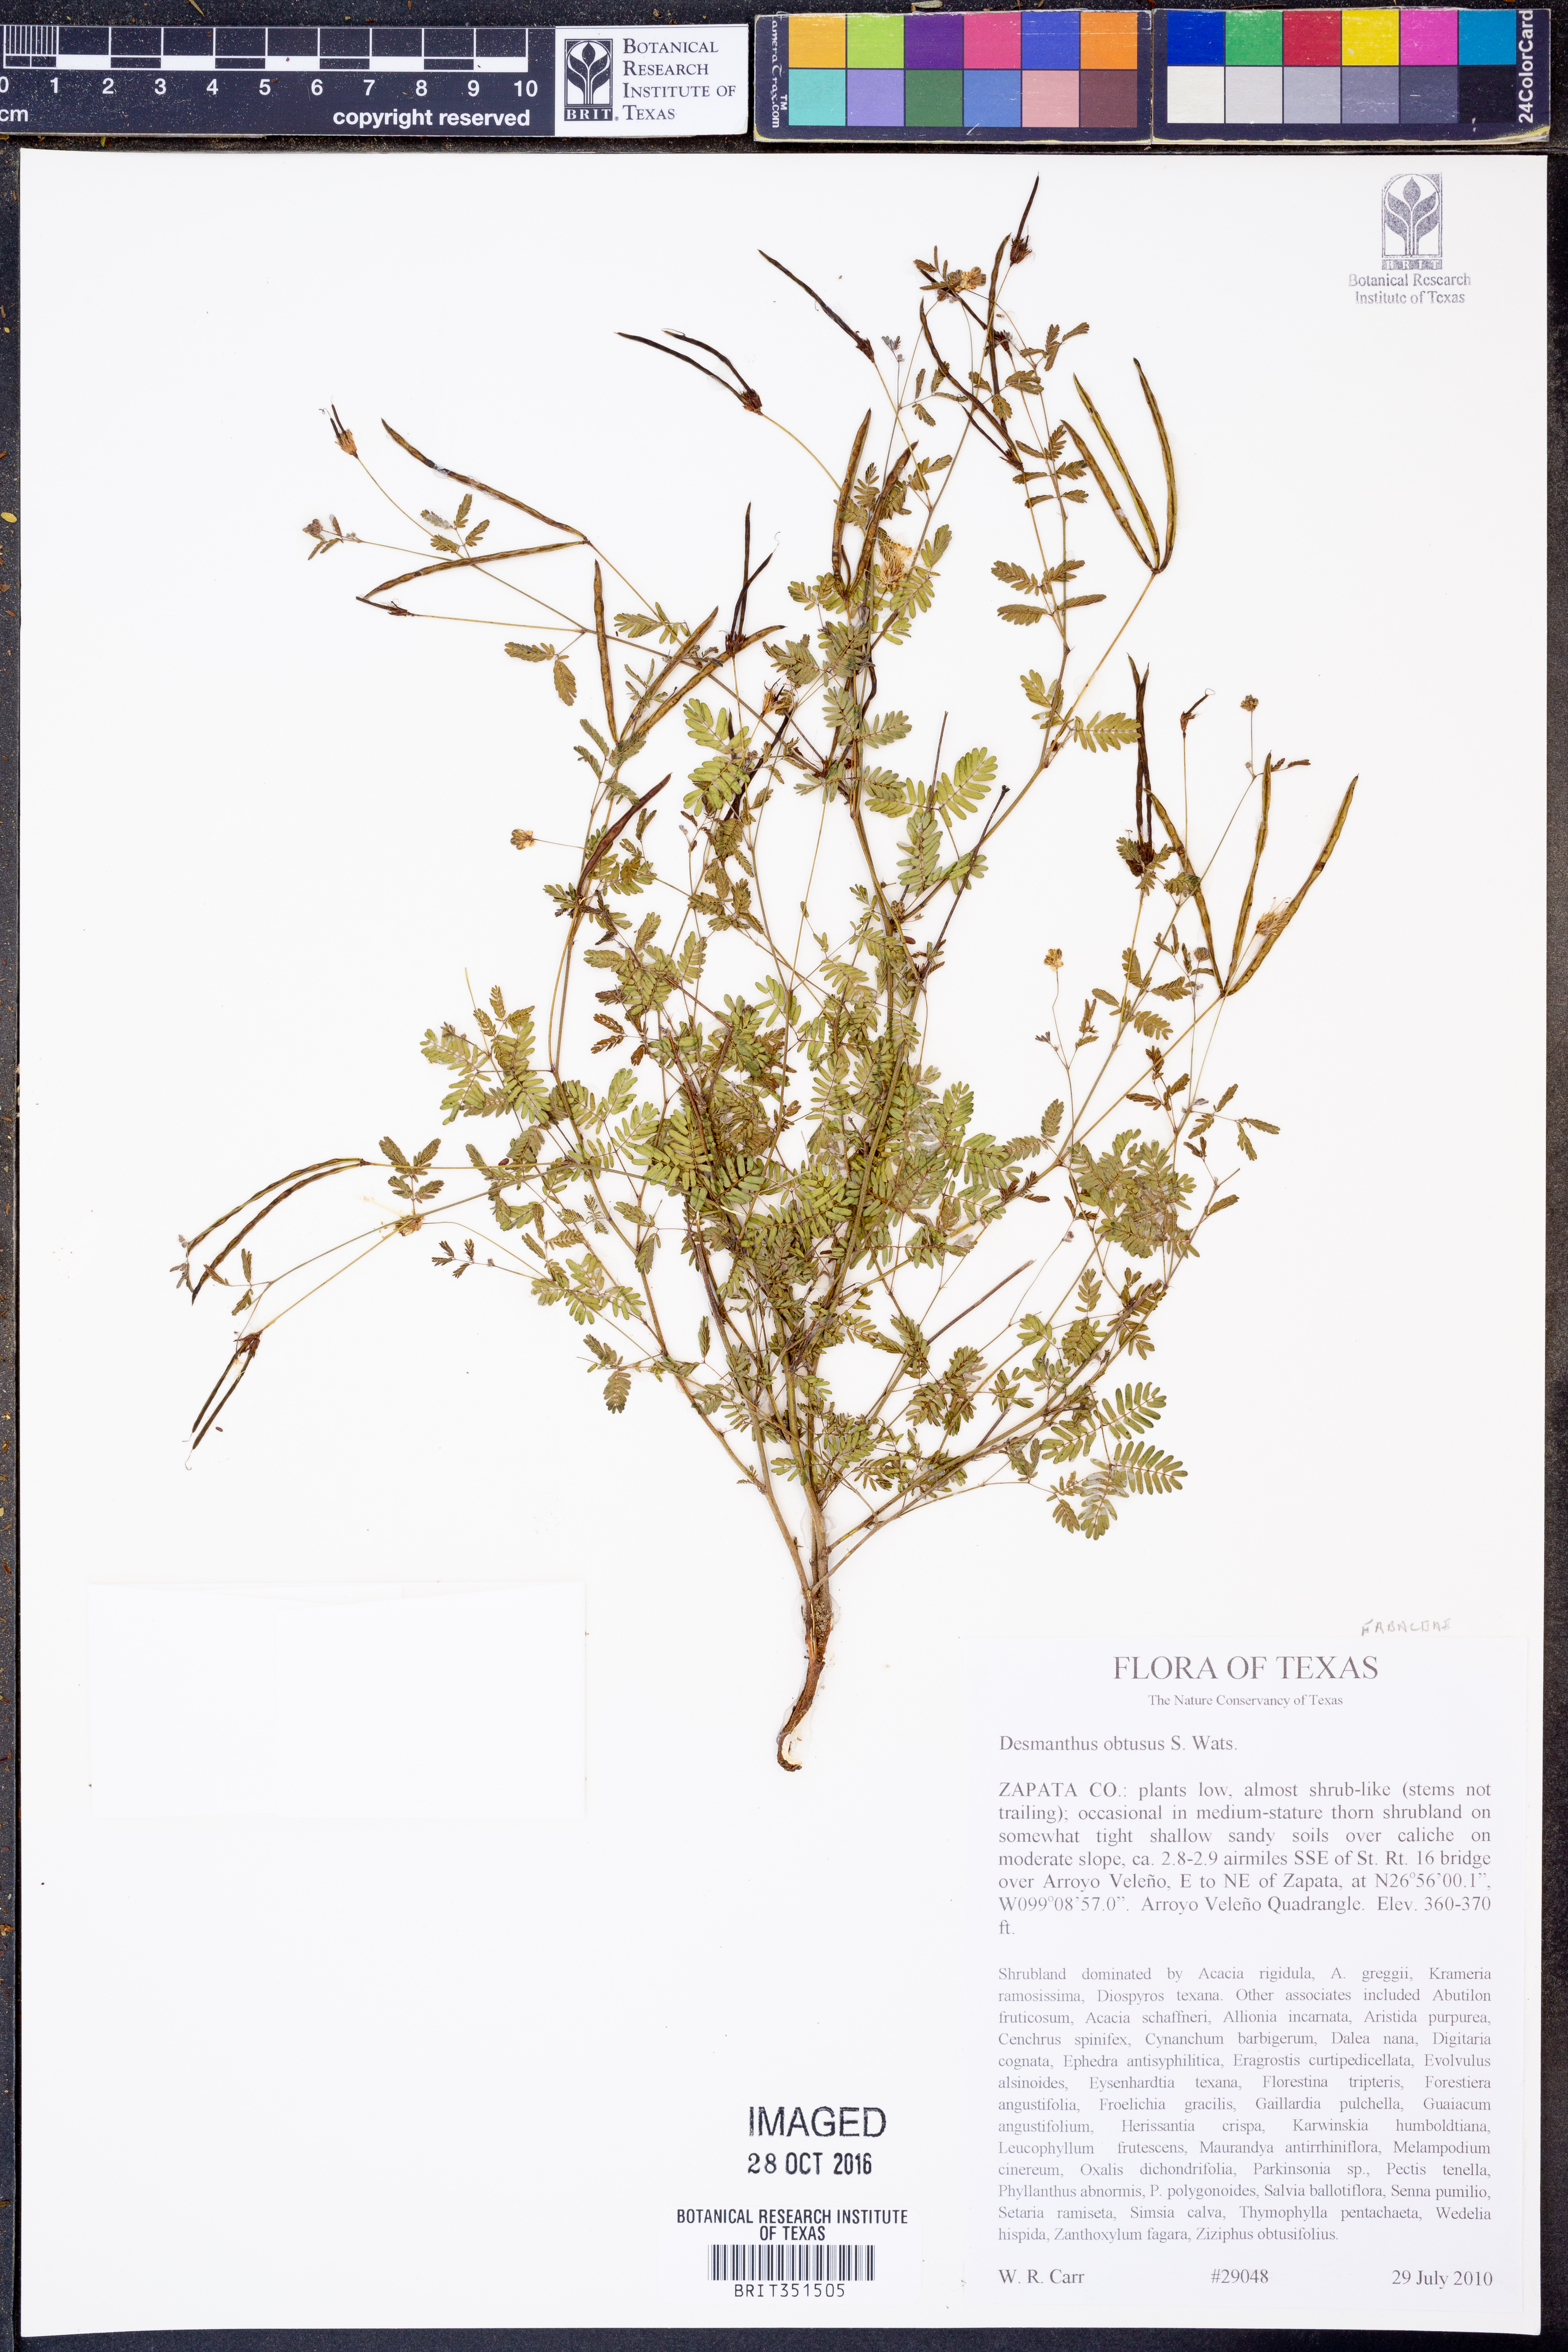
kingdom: Plantae
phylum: Tracheophyta
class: Magnoliopsida
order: Fabales
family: Fabaceae
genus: Desmanthus
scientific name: Desmanthus obtusus
